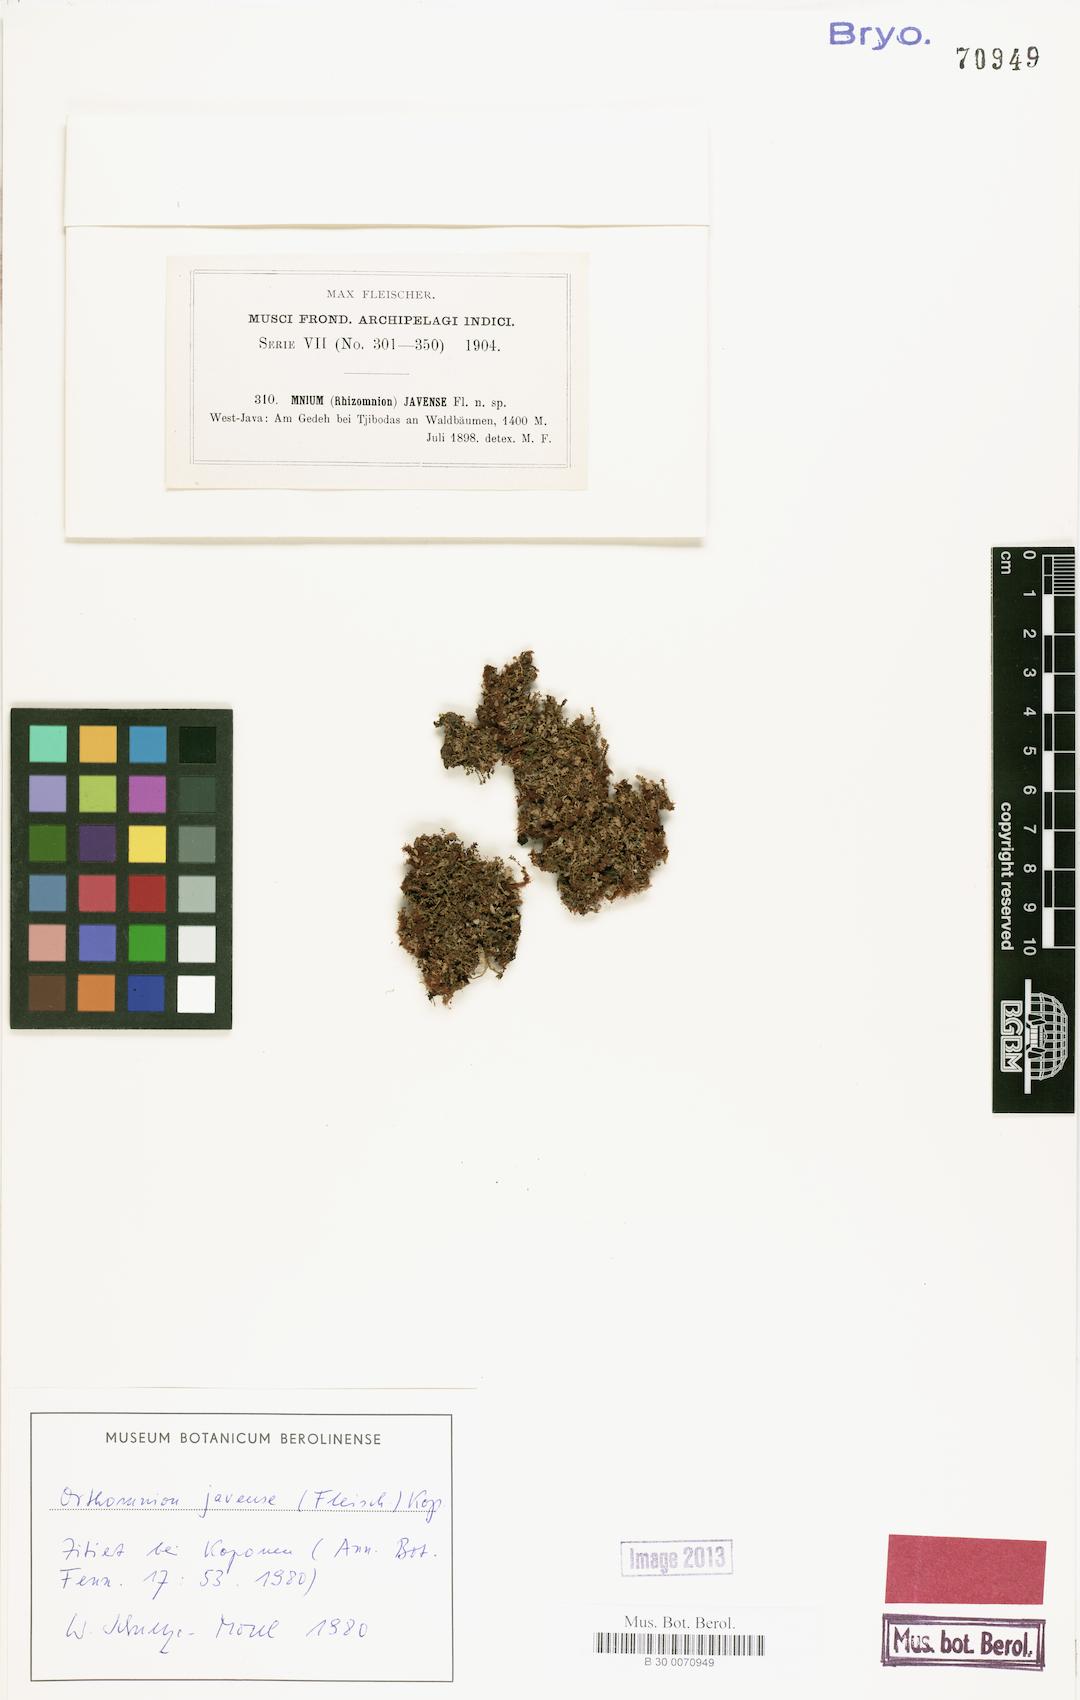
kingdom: Plantae
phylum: Bryophyta
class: Bryopsida
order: Bryales
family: Mniaceae
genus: Orthomnion
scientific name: Orthomnion javense
